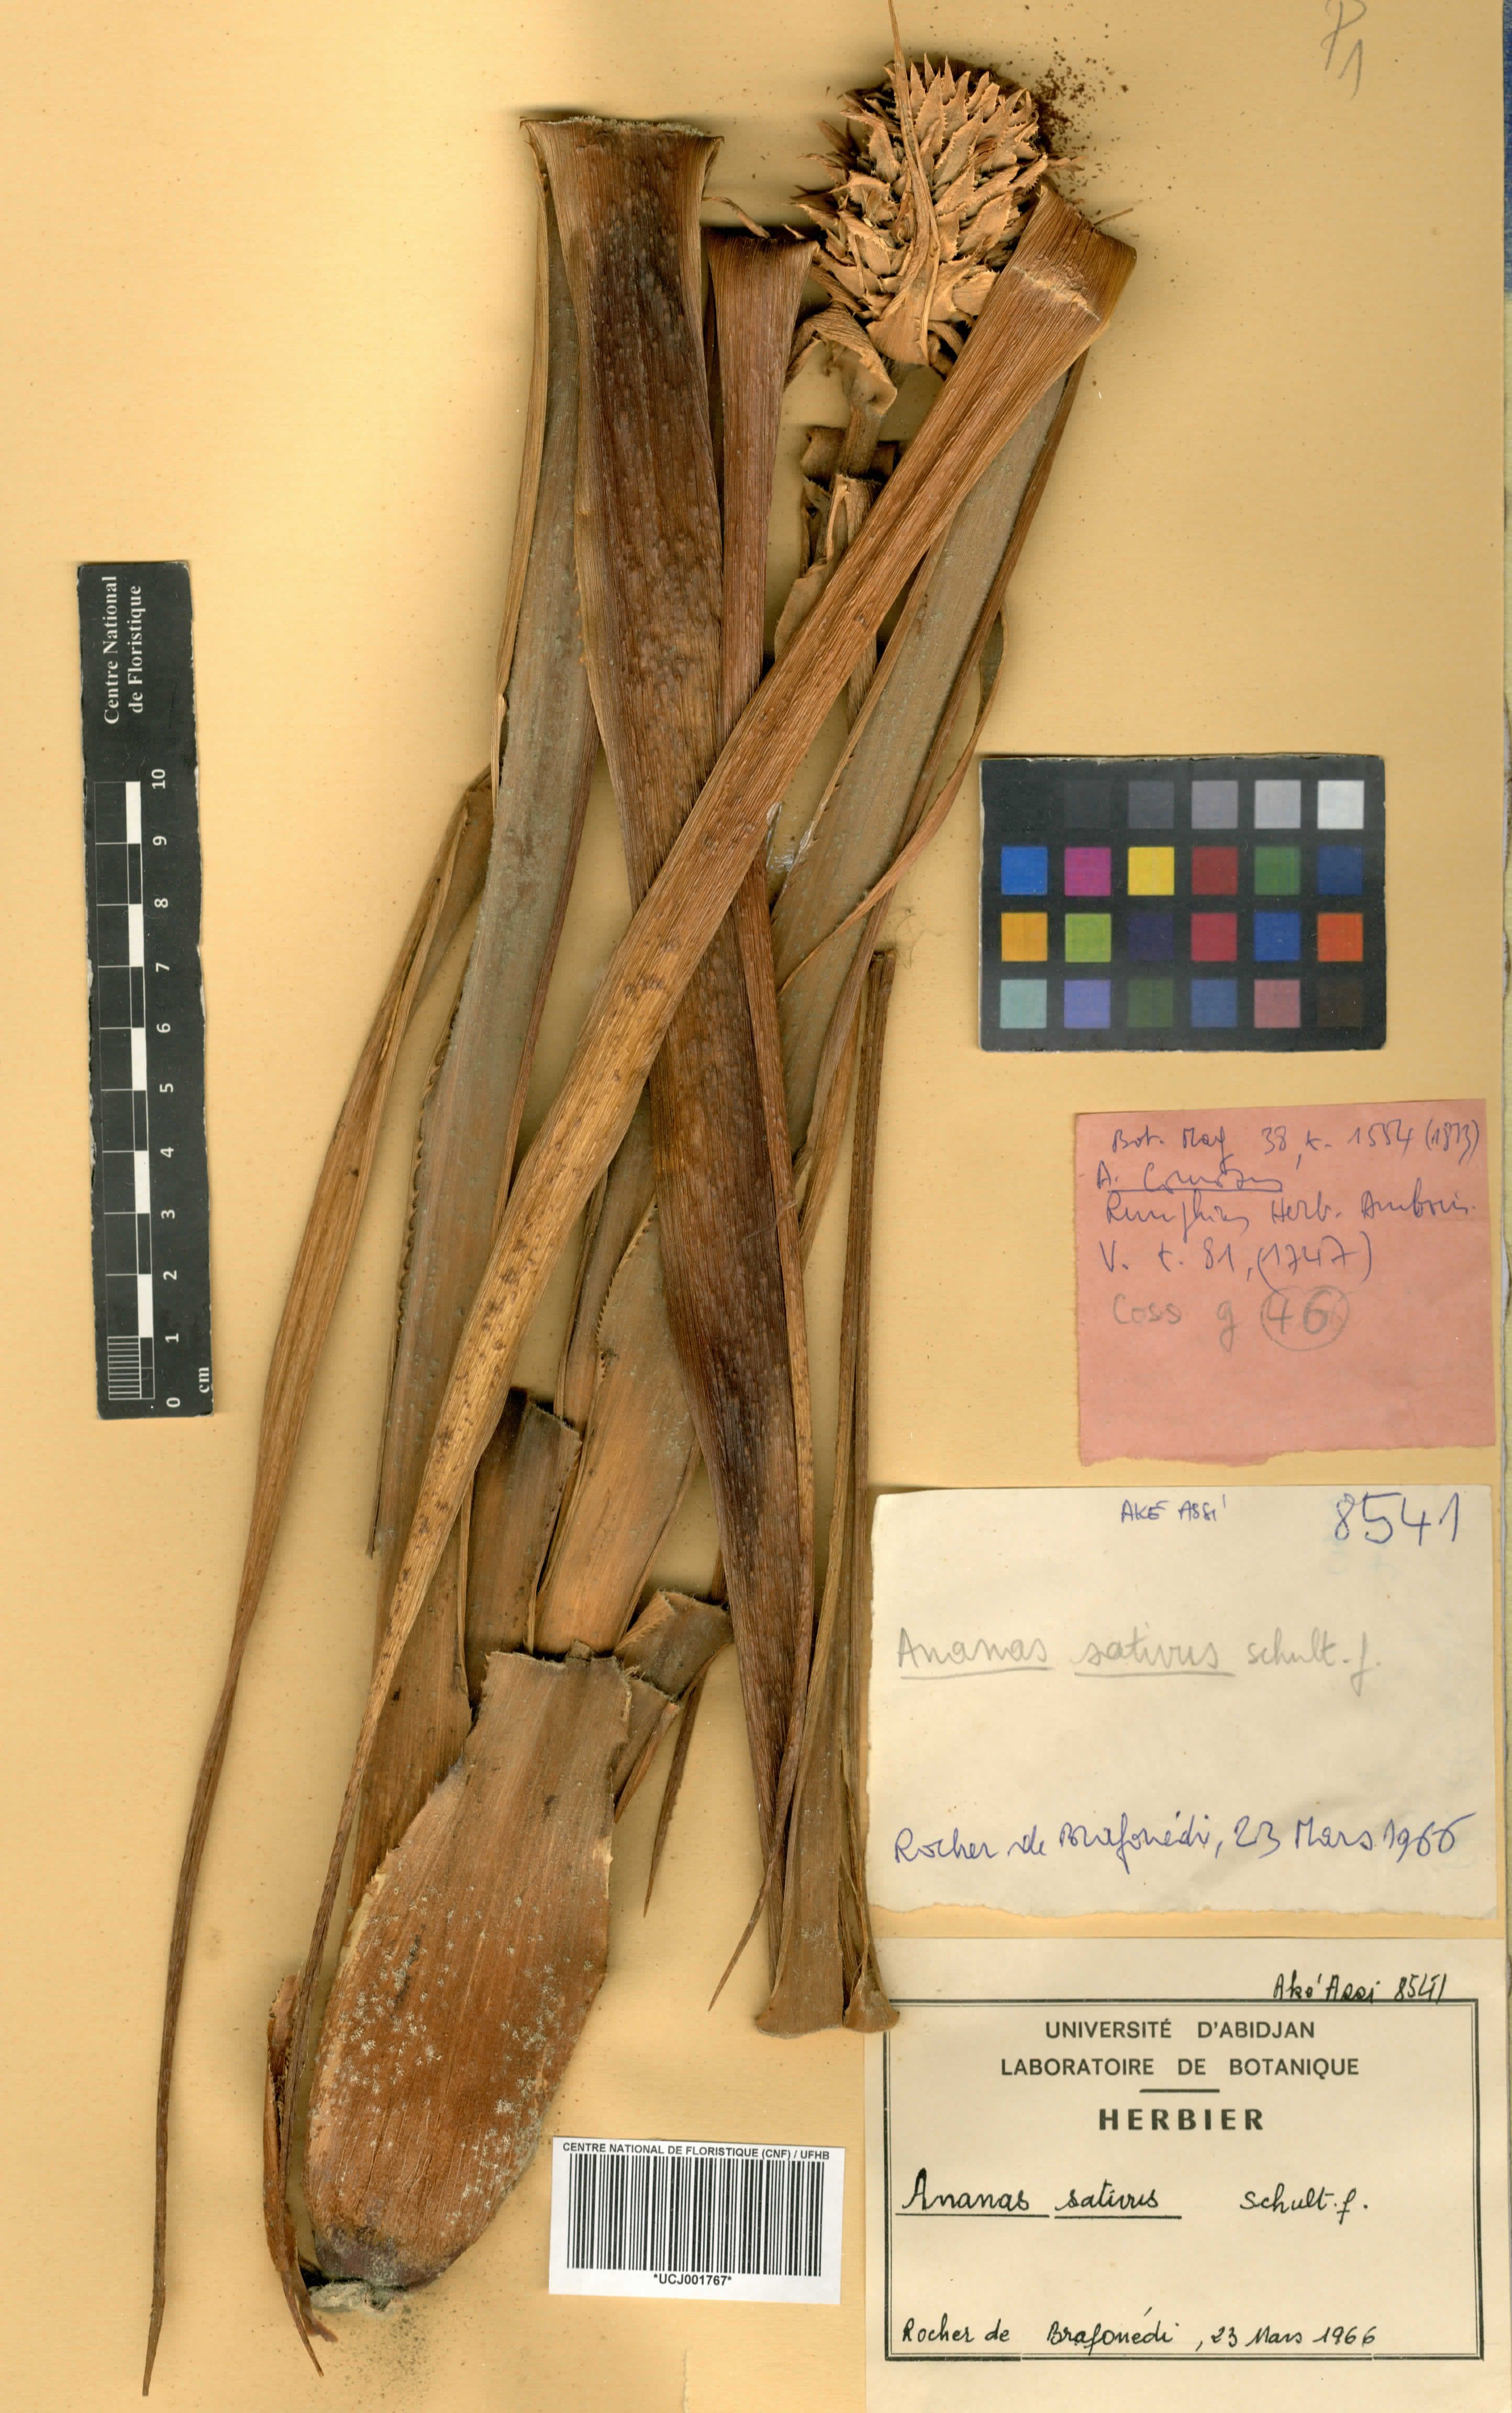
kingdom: Plantae
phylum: Tracheophyta
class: Liliopsida
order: Poales
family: Bromeliaceae
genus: Ananas
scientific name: Ananas comosus
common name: Pineapple
